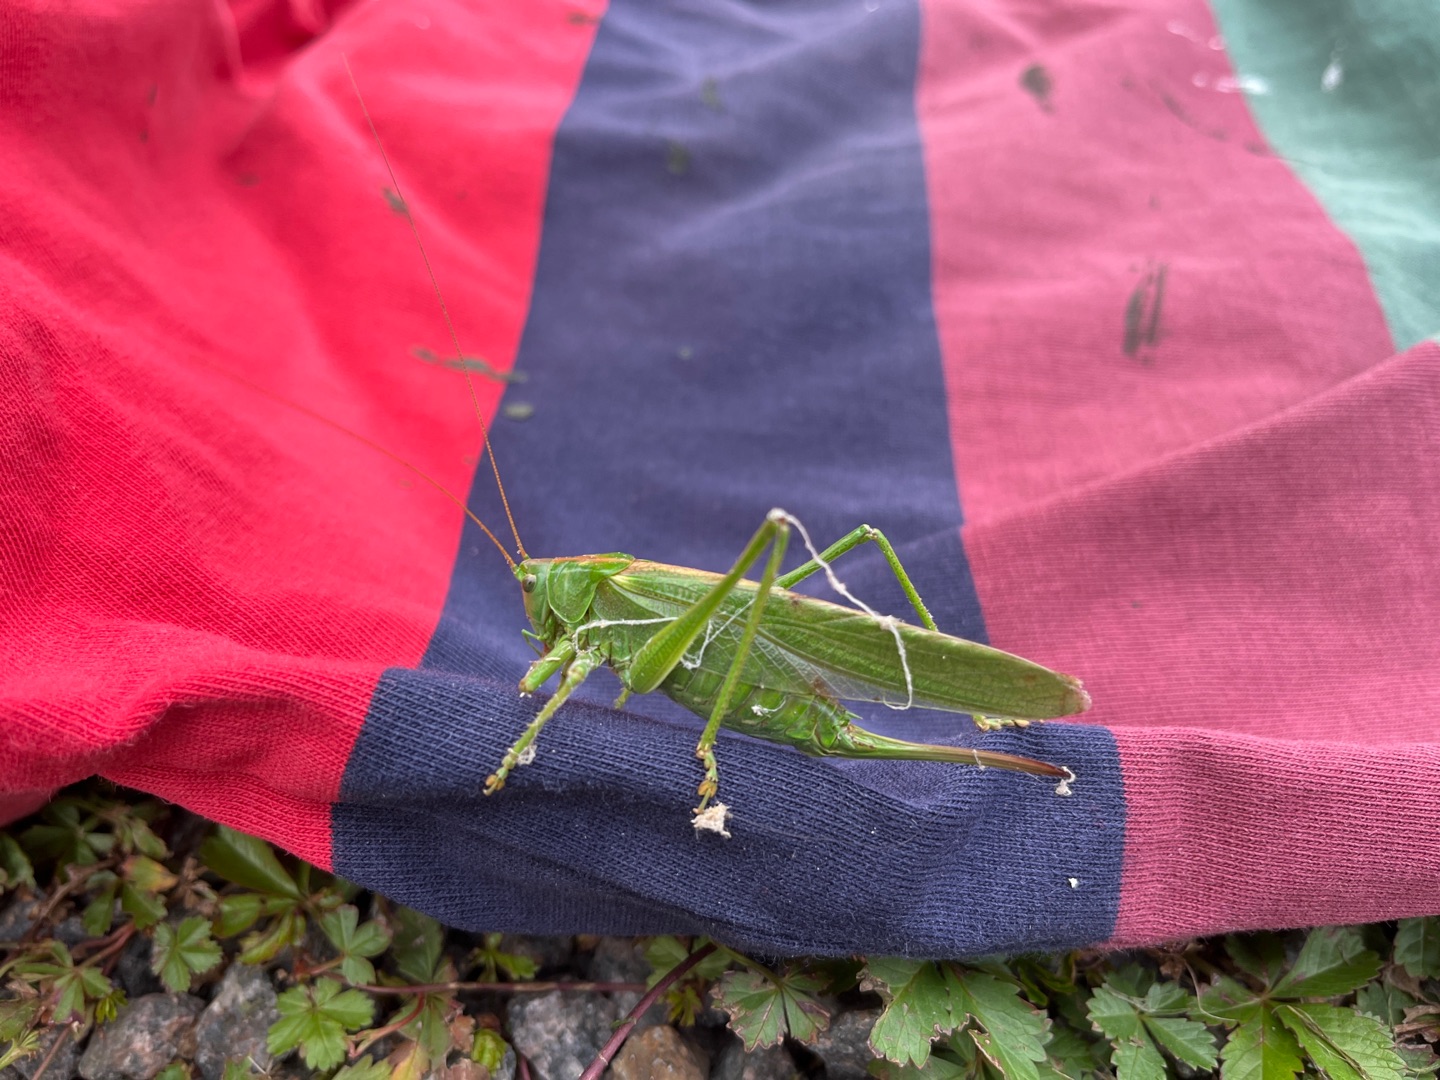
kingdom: Animalia
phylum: Arthropoda
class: Insecta
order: Orthoptera
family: Tettigoniidae
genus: Tettigonia
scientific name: Tettigonia viridissima
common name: Stor grøn løvgræshoppe
